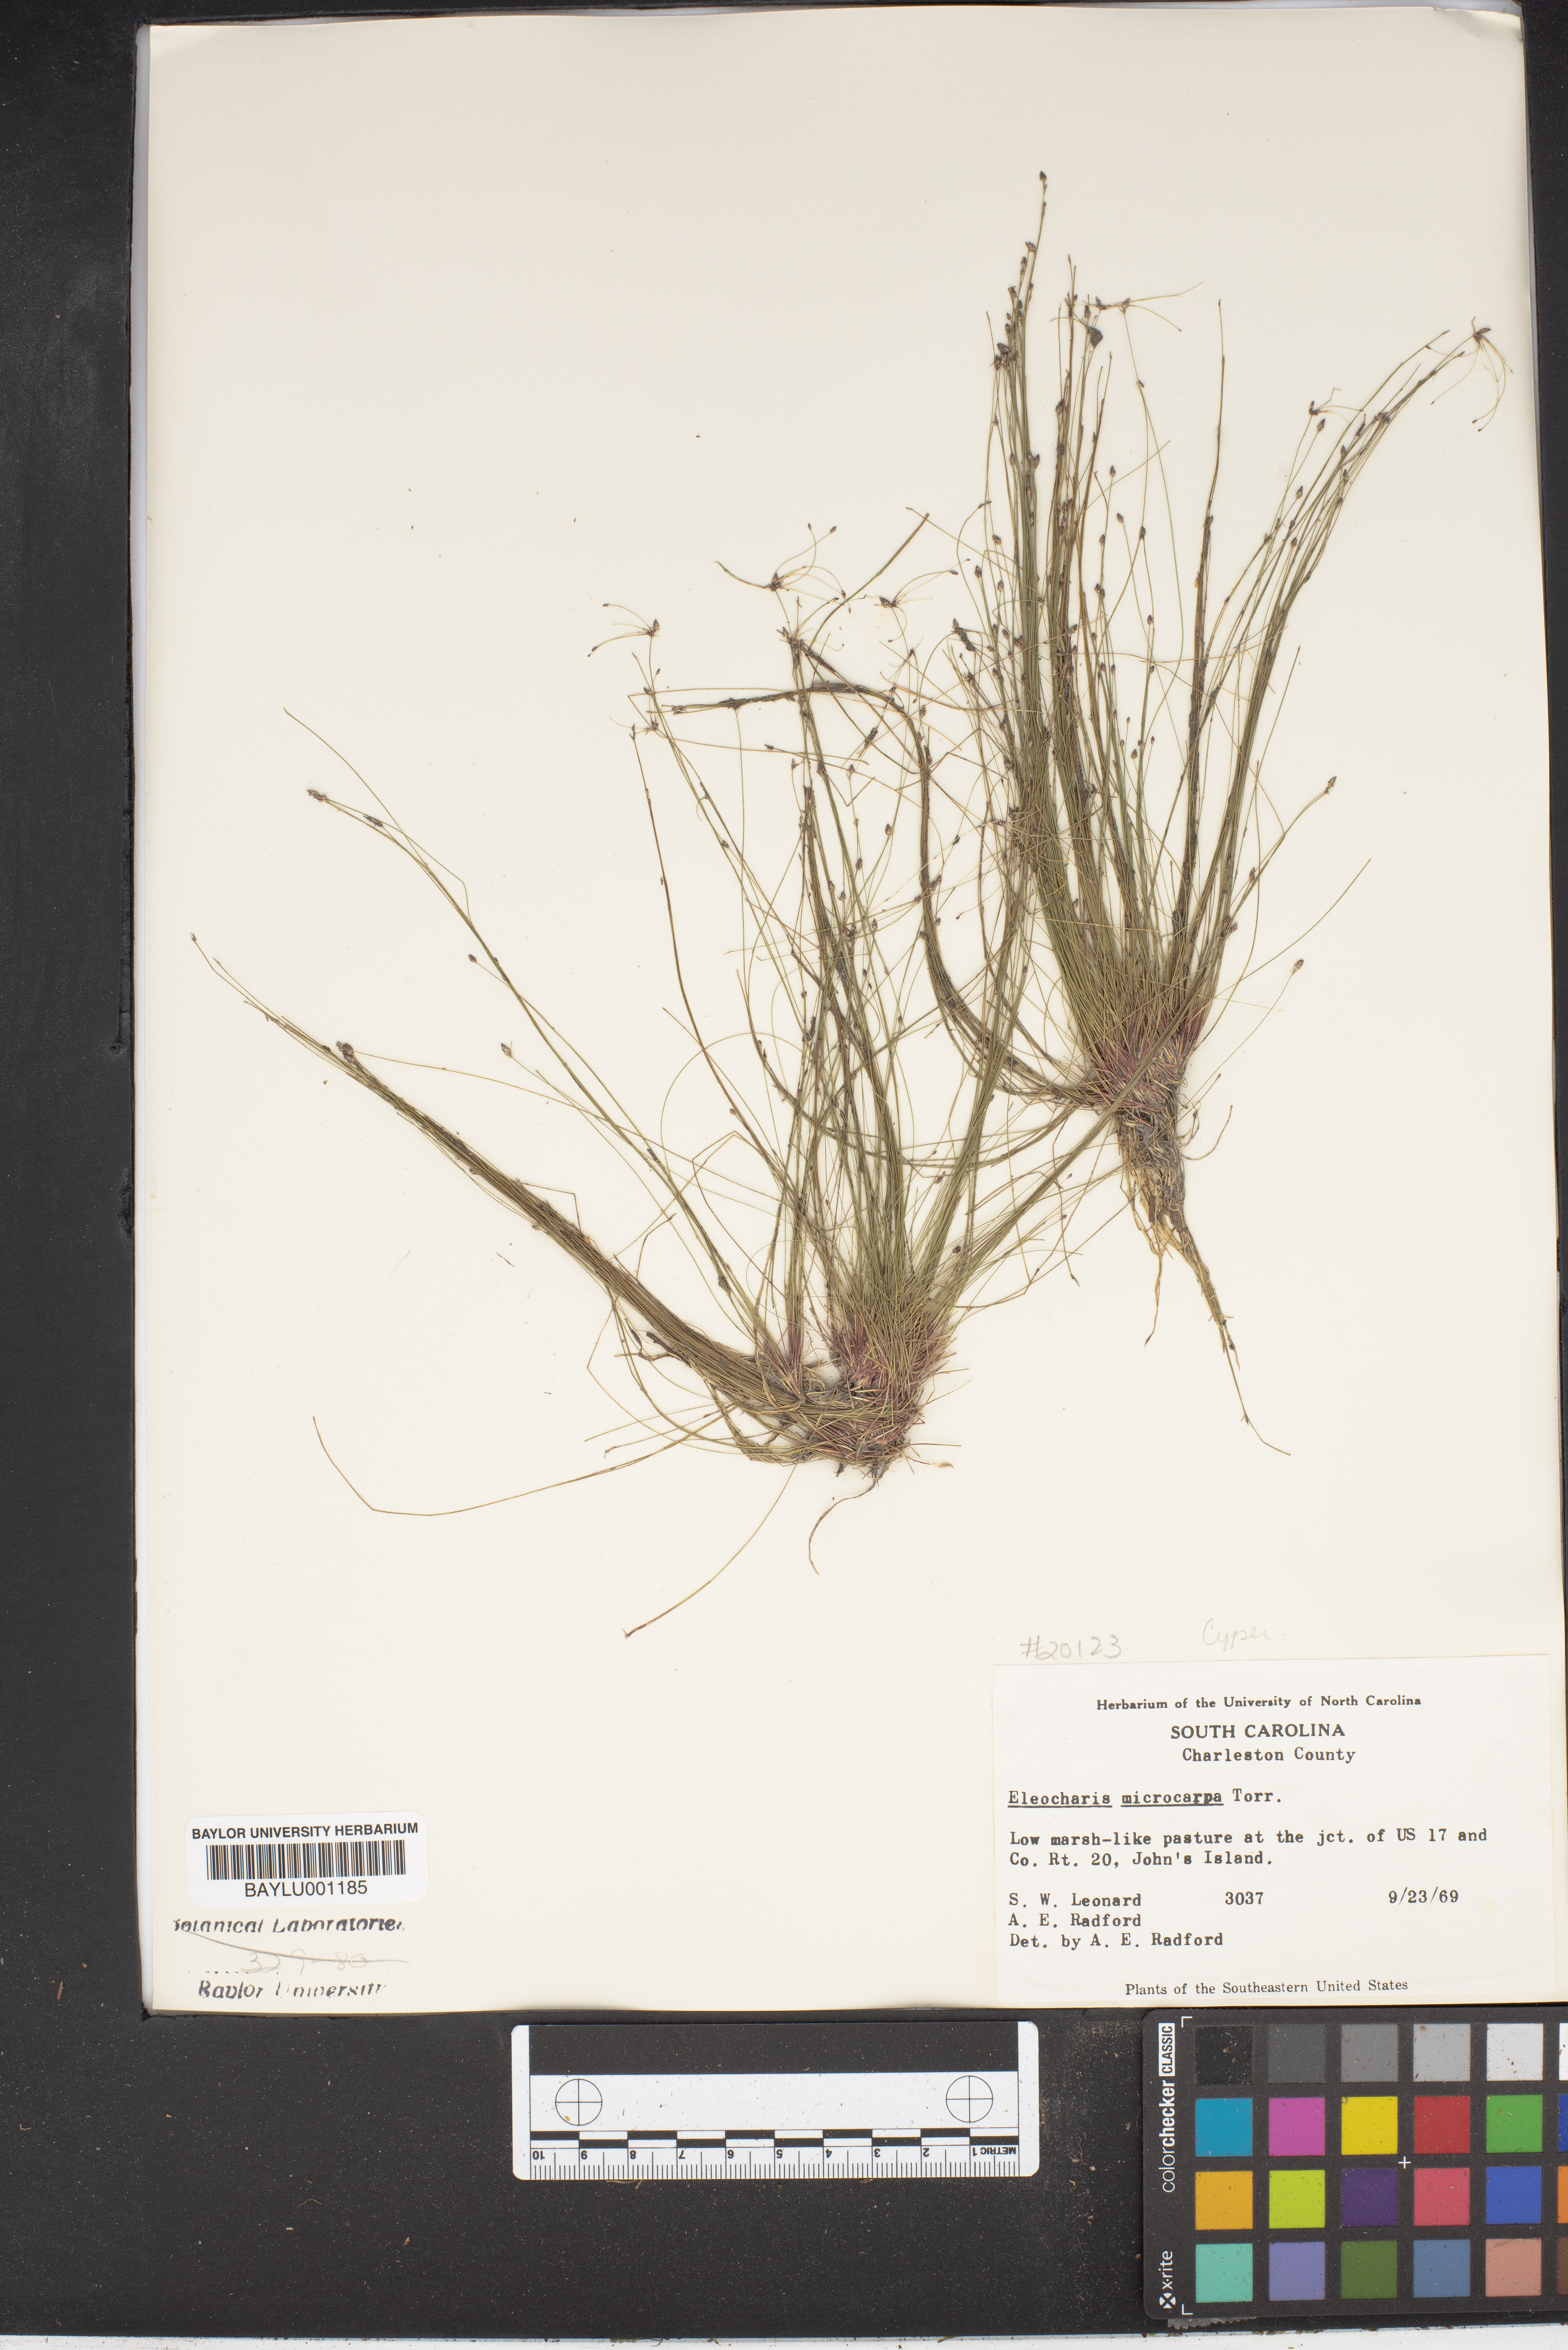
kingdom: Plantae
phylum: Tracheophyta
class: Liliopsida
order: Poales
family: Cyperaceae
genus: Eleocharis
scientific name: Eleocharis microcarpa
